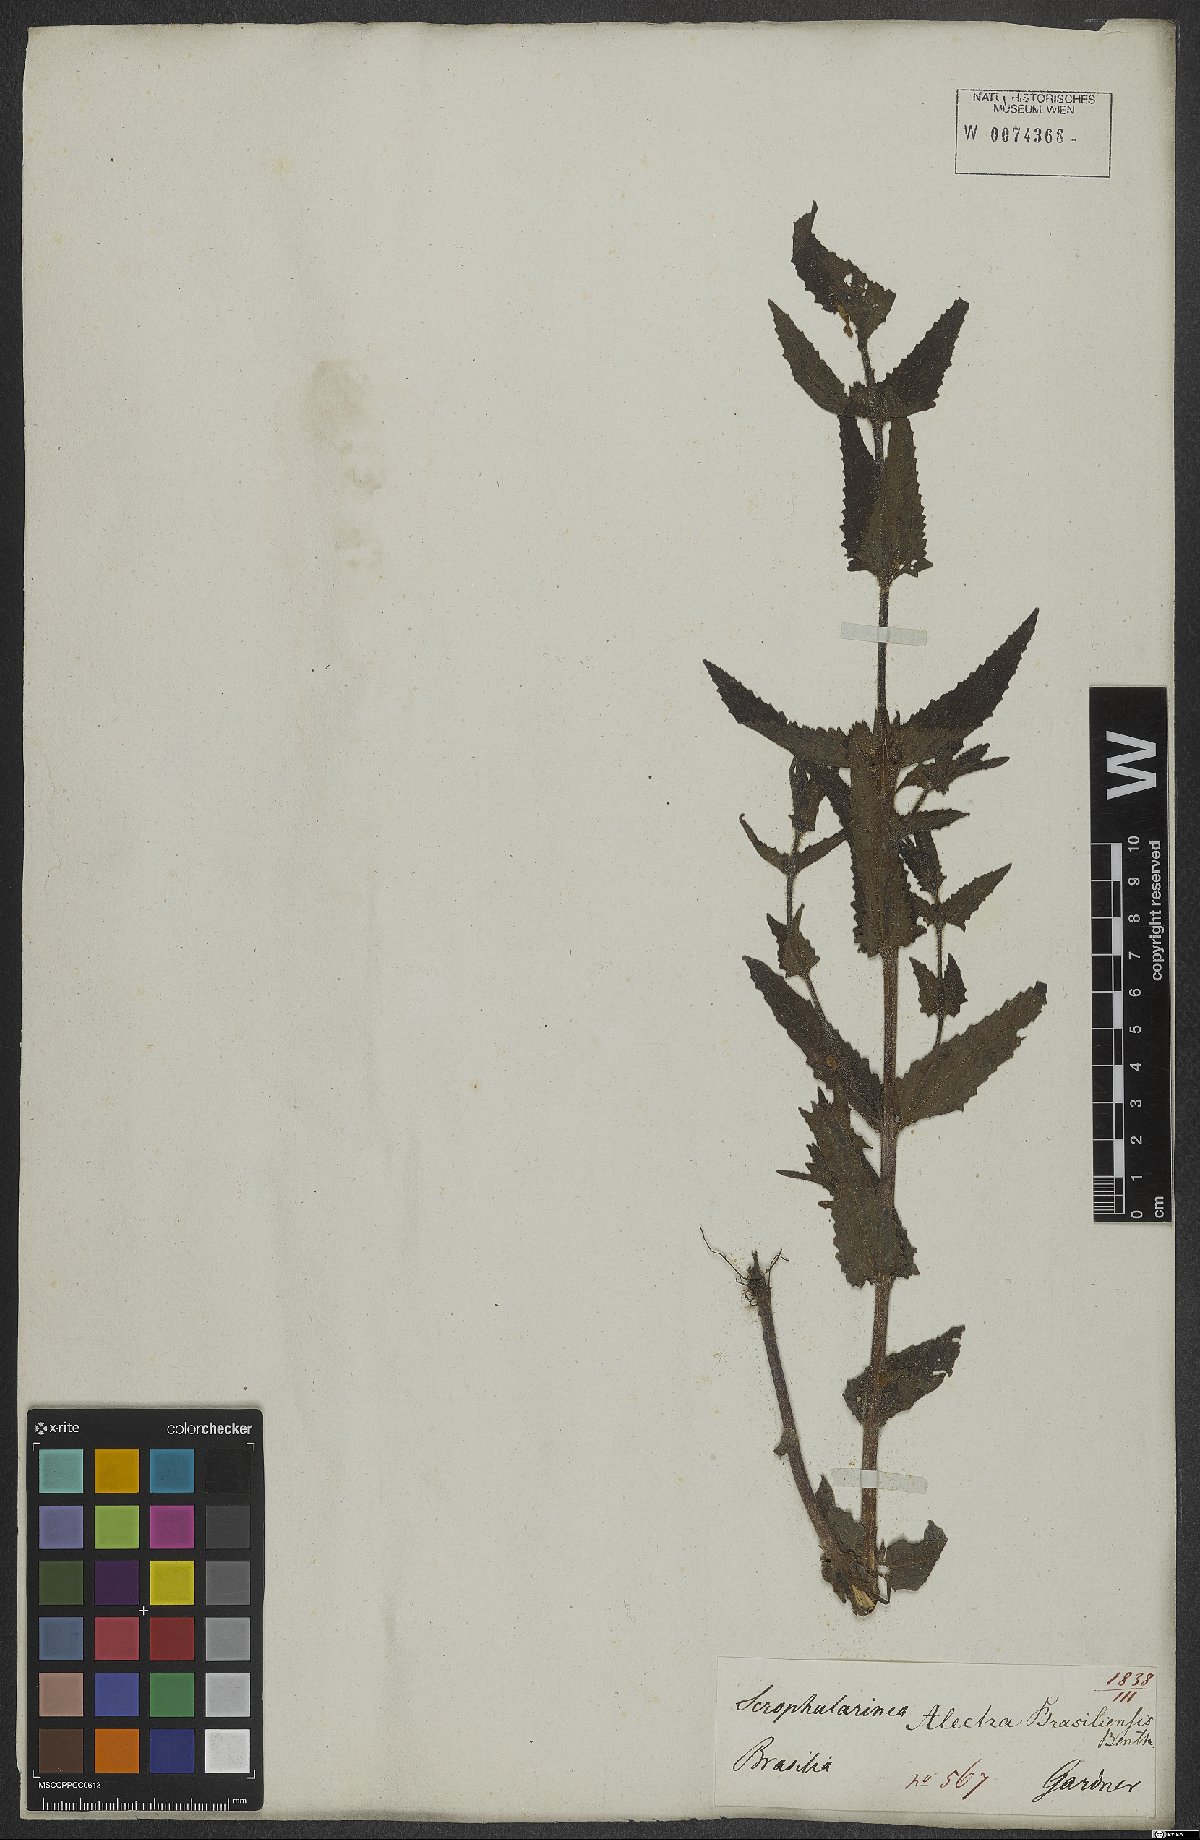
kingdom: Plantae
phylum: Tracheophyta
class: Magnoliopsida
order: Lamiales
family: Orobanchaceae
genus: Melasma
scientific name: Melasma melampyroides
